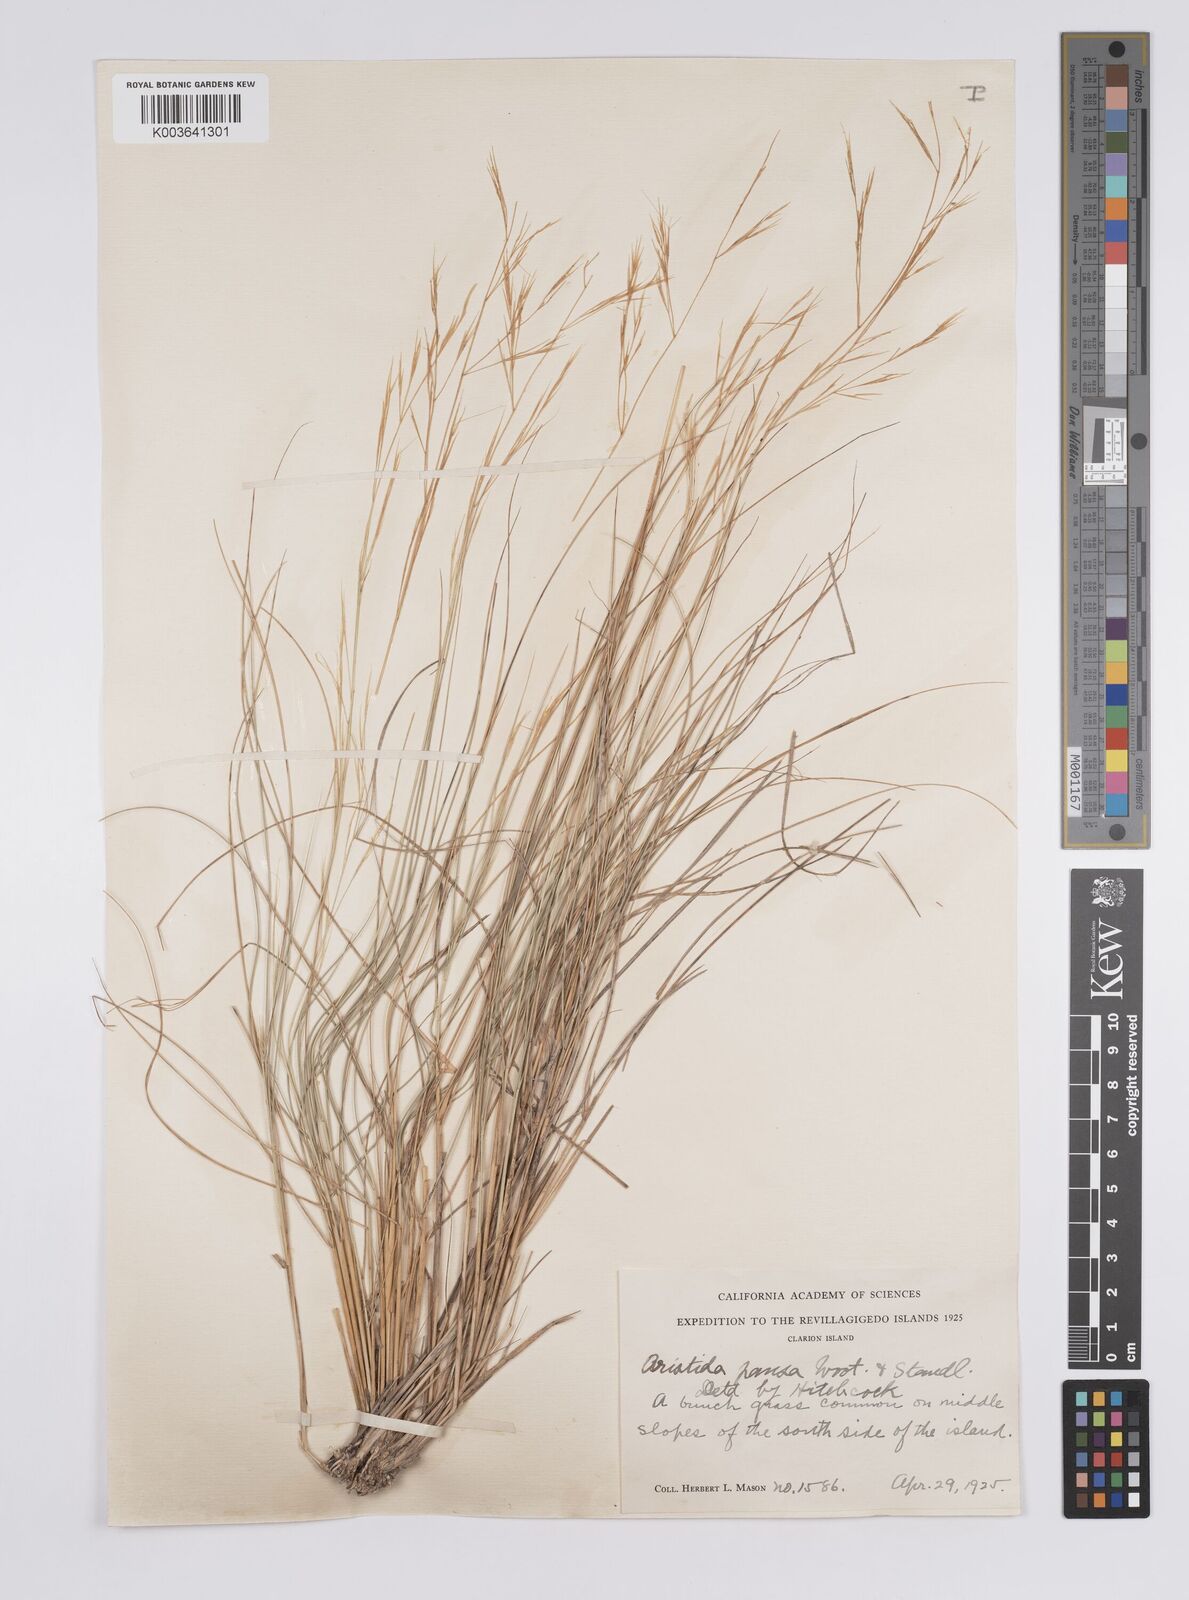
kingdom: Plantae
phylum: Tracheophyta
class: Liliopsida
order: Poales
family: Poaceae
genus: Aristida
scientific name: Aristida pansa
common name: Wooton's three-awn
